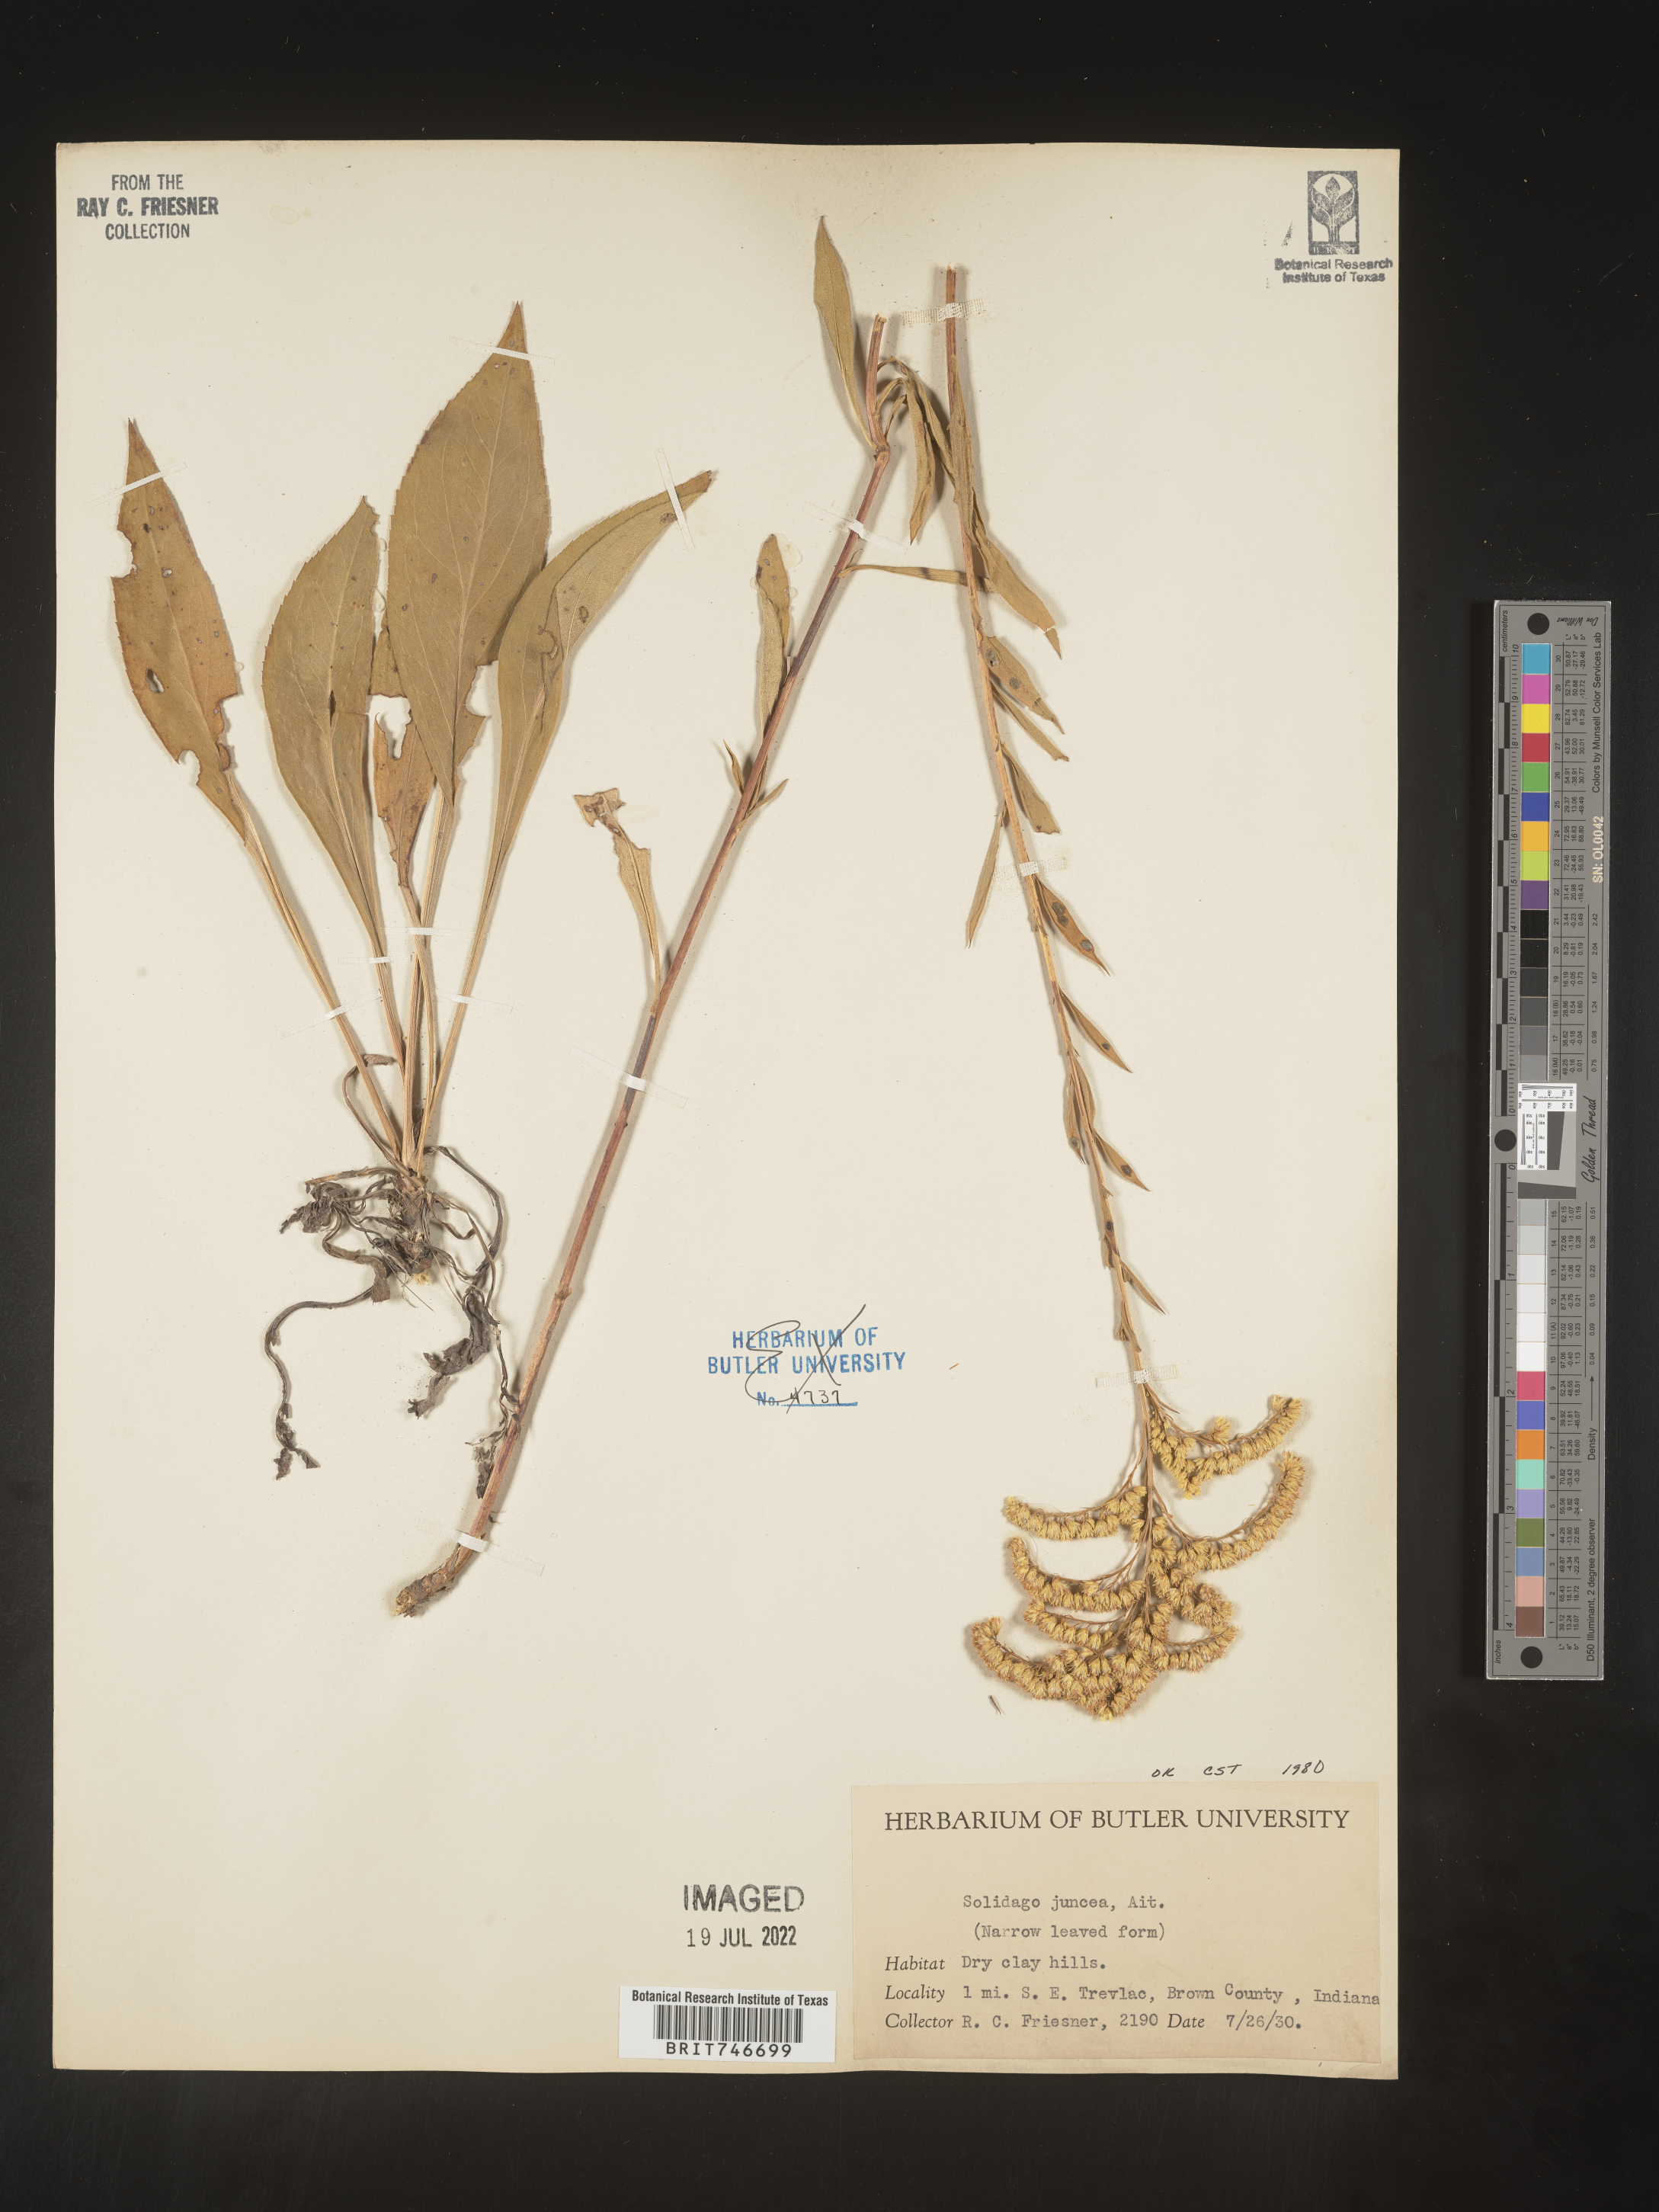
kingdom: Plantae
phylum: Tracheophyta
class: Magnoliopsida
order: Asterales
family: Asteraceae
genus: Solidago
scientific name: Solidago juncea
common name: Early goldenrod
